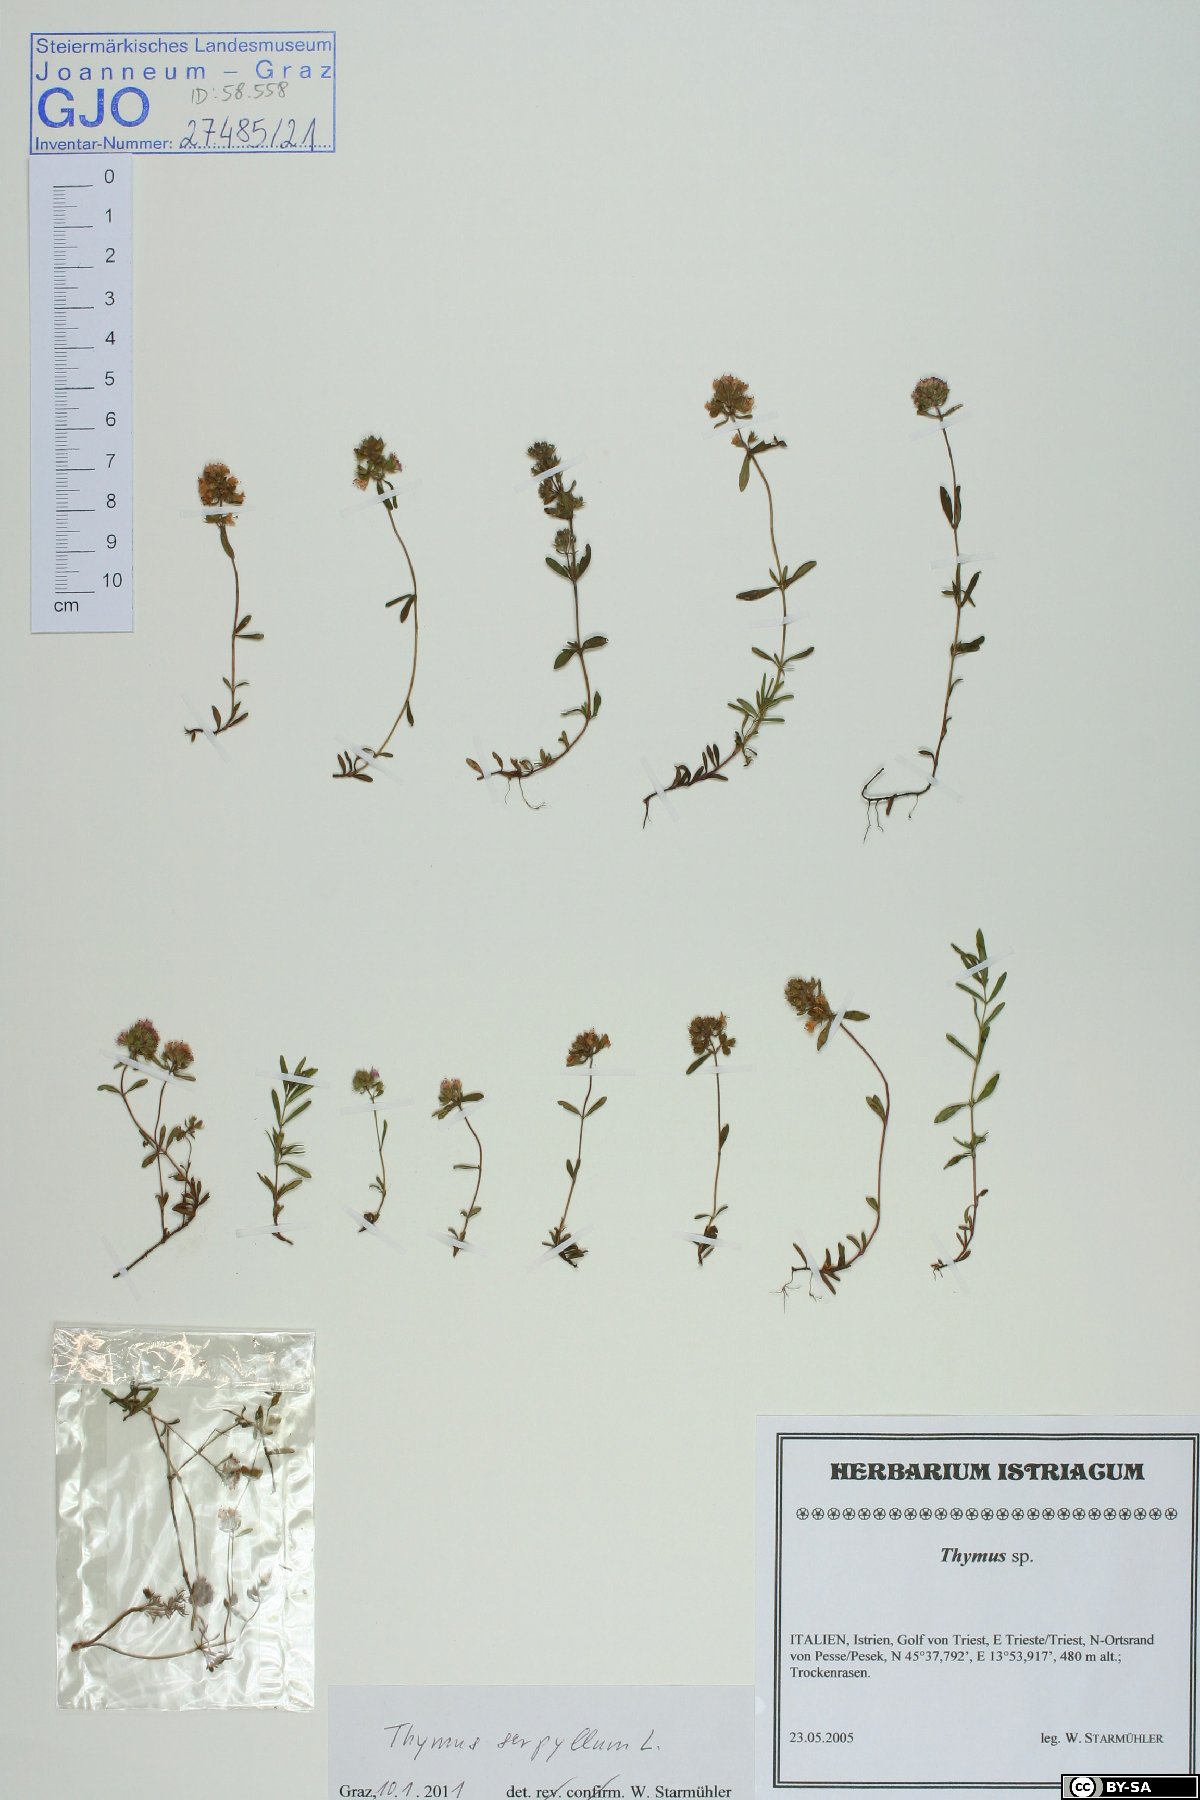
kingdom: Plantae
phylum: Tracheophyta
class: Magnoliopsida
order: Lamiales
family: Lamiaceae
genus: Thymus
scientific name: Thymus serpyllum
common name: Breckland thyme
